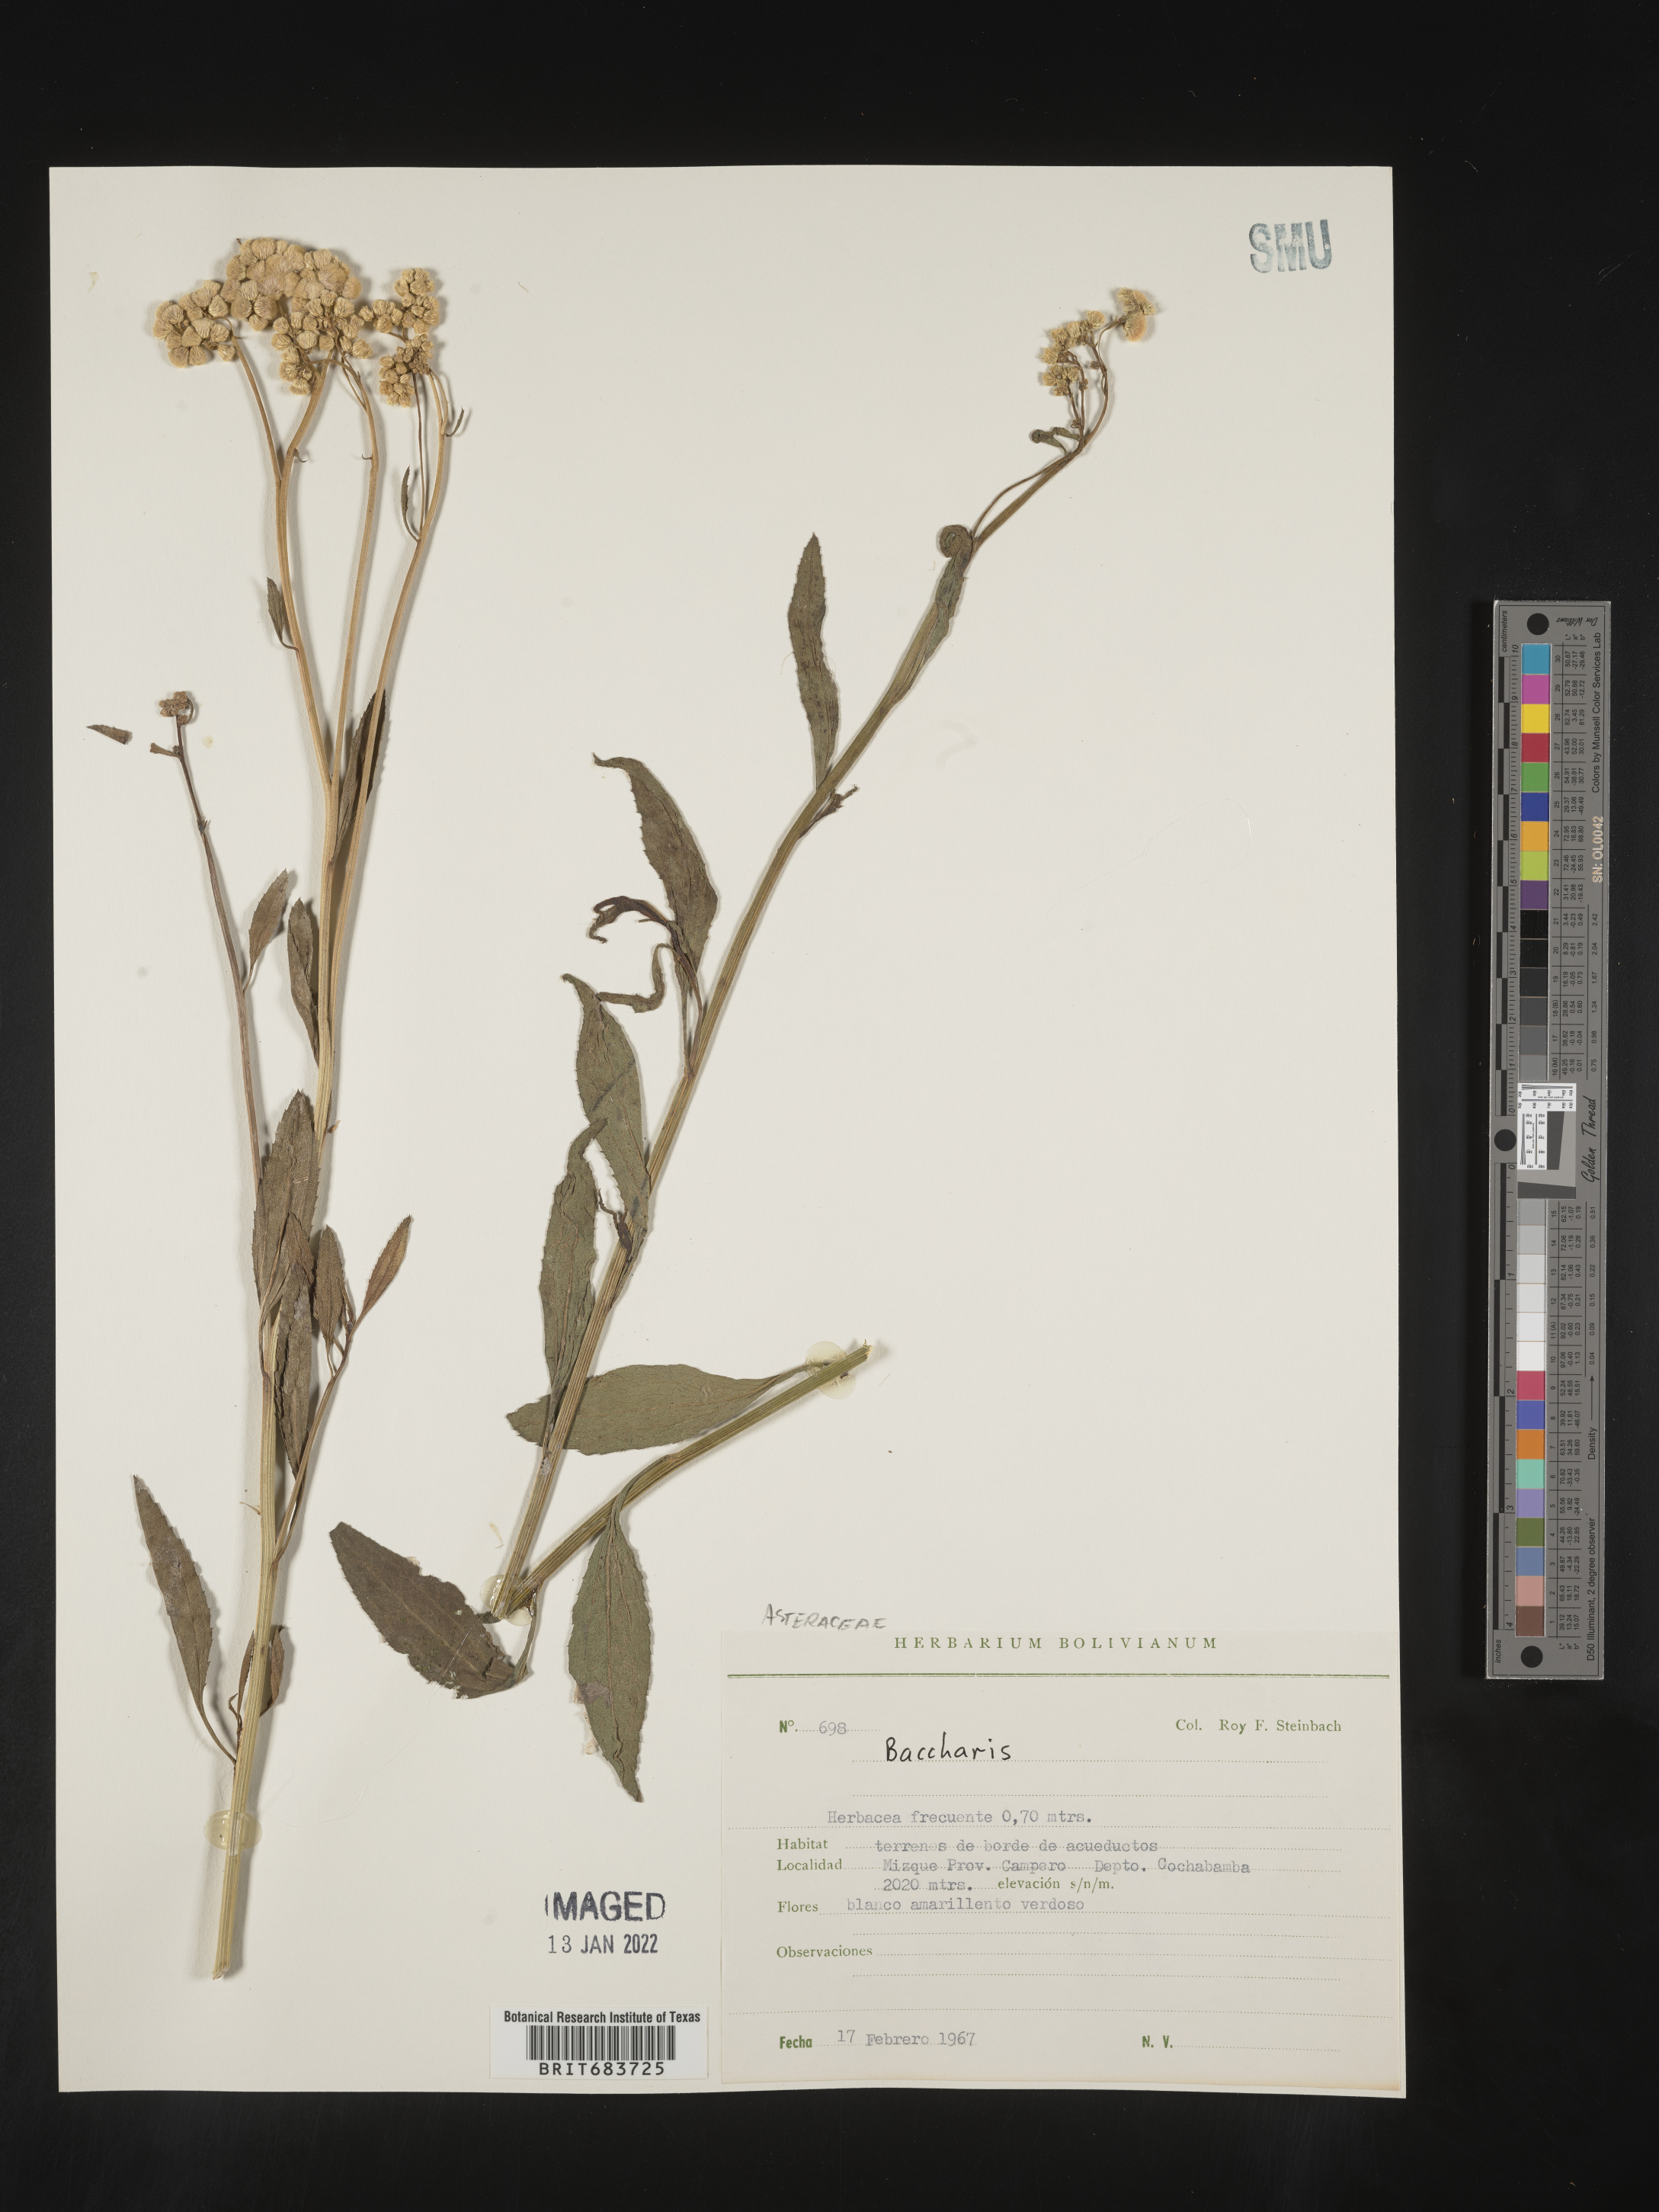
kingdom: Plantae
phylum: Tracheophyta
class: Magnoliopsida
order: Asterales
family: Asteraceae
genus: Baccharis
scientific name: Baccharis
